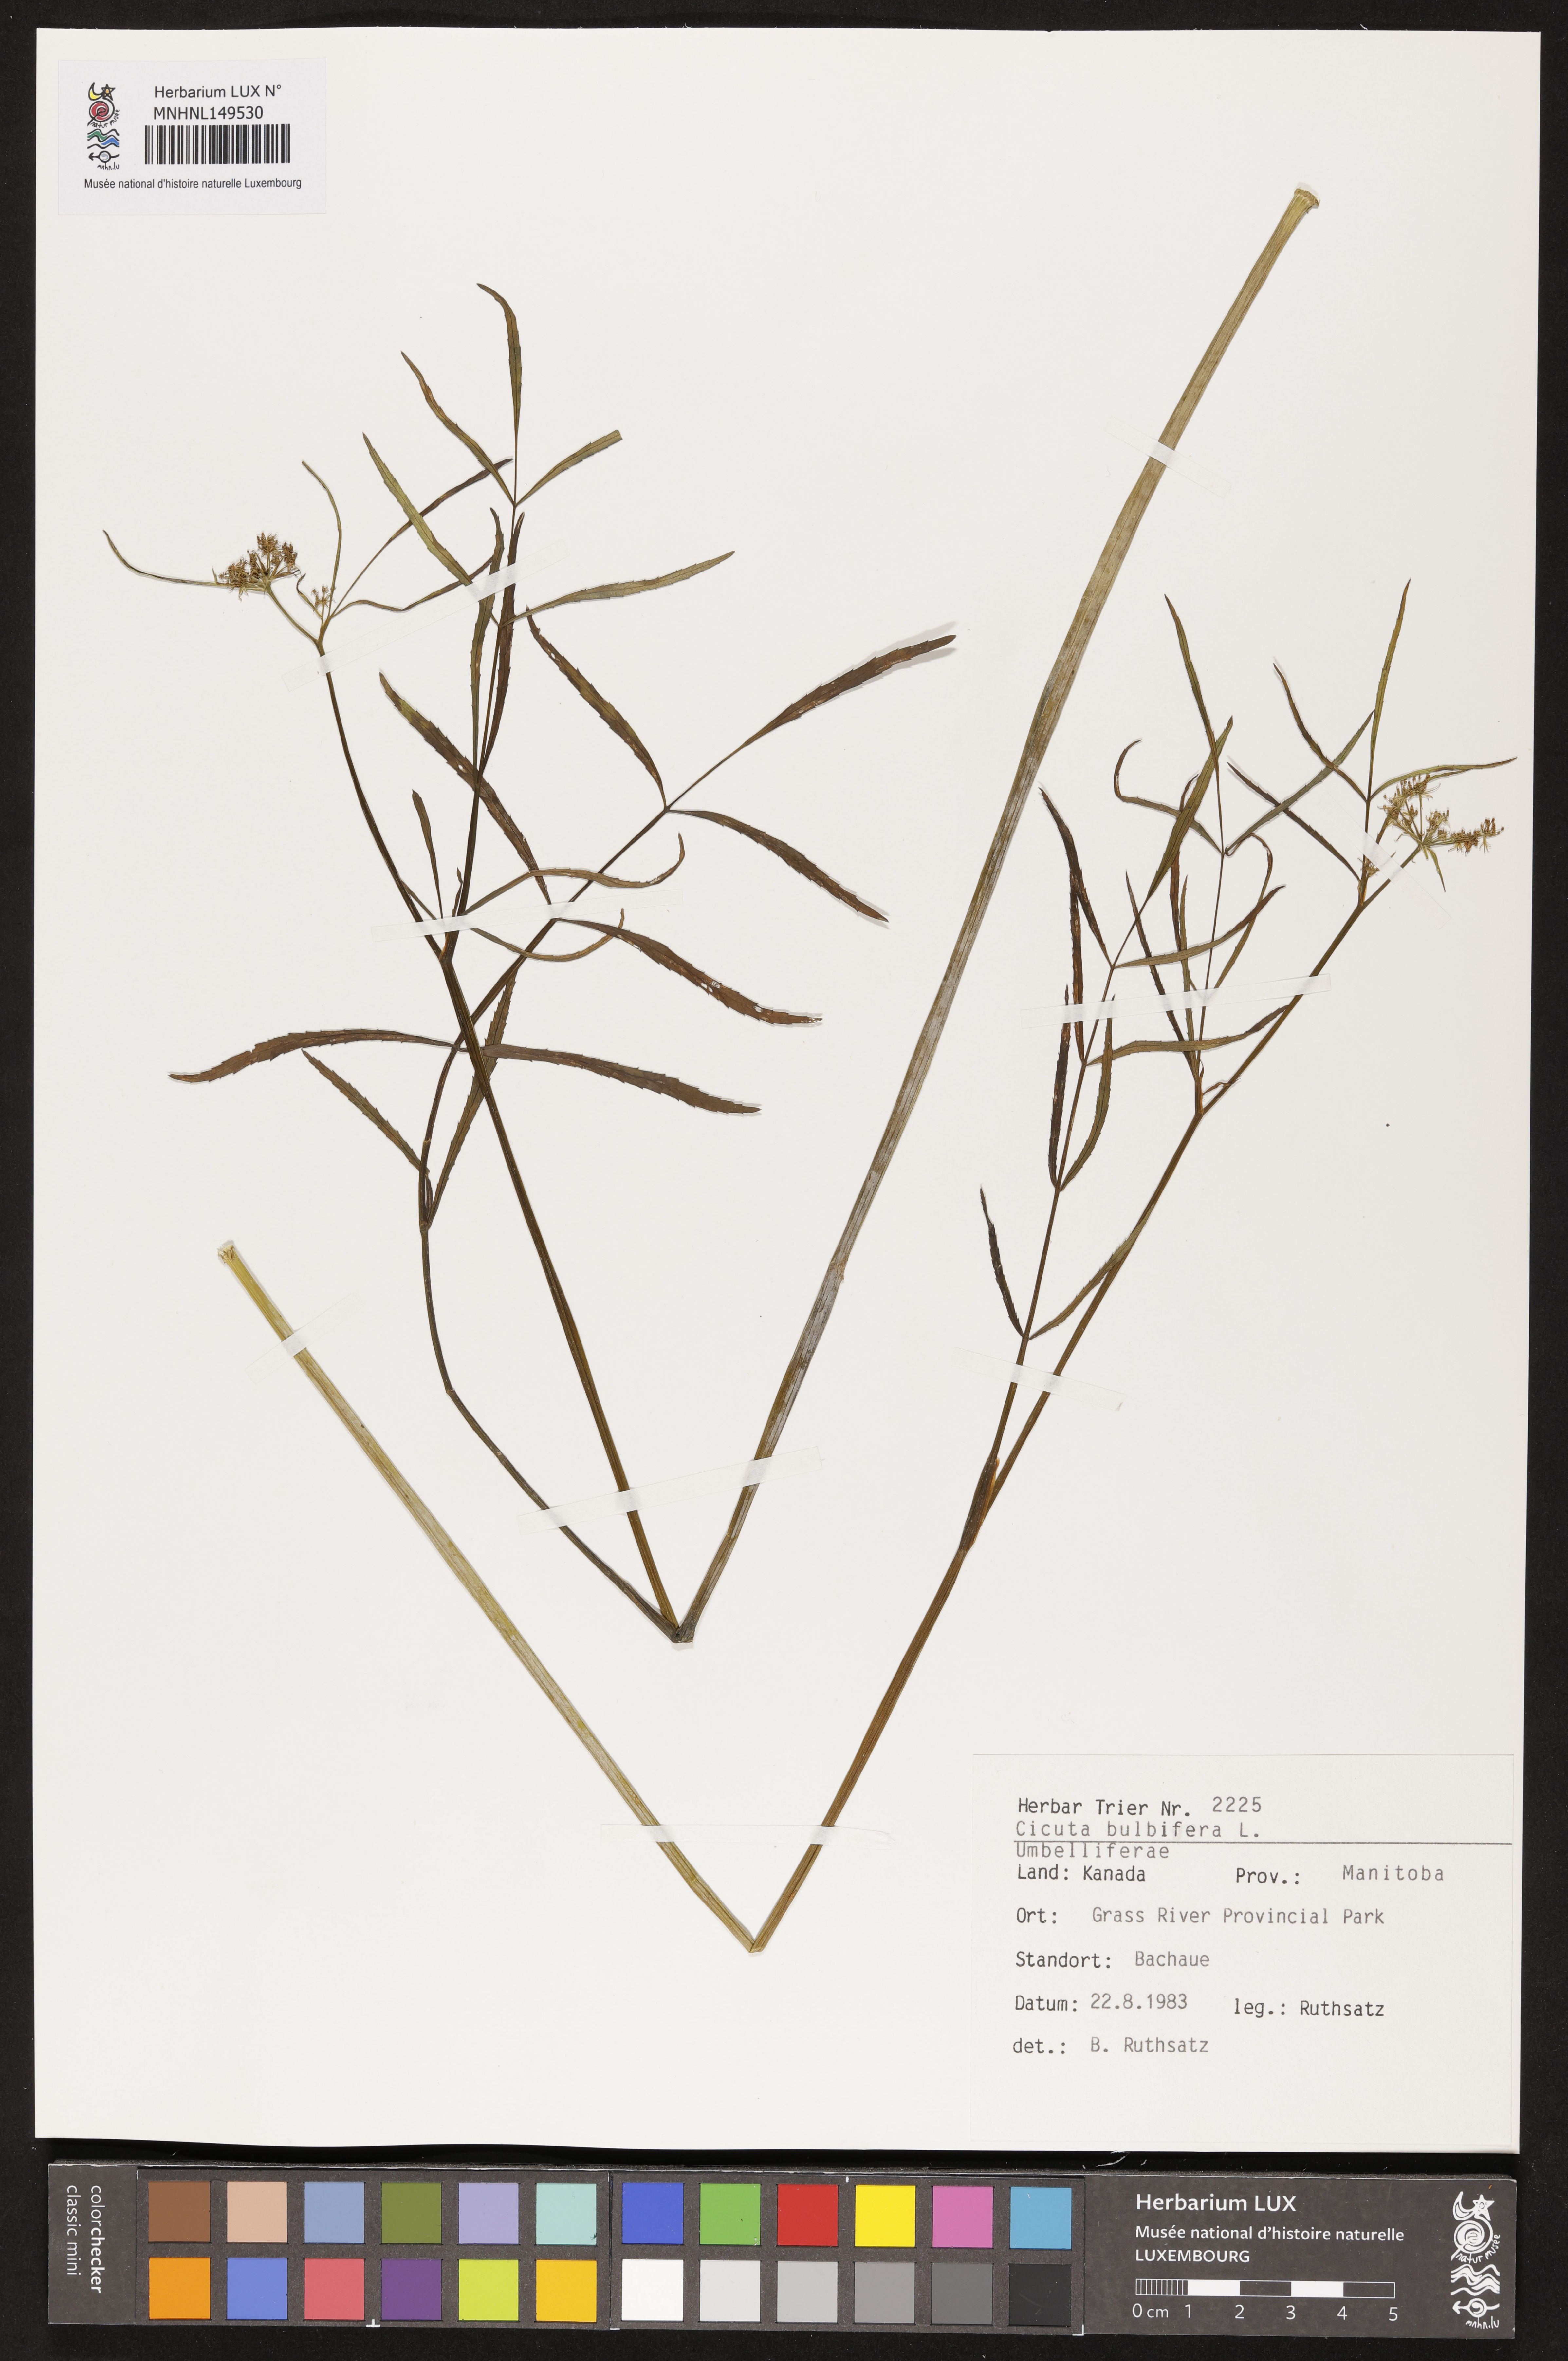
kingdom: Plantae
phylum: Tracheophyta
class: Magnoliopsida
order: Apiales
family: Apiaceae
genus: Cicuta
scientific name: Cicuta bulbifera
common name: Bulb-bearing water-hemlock
